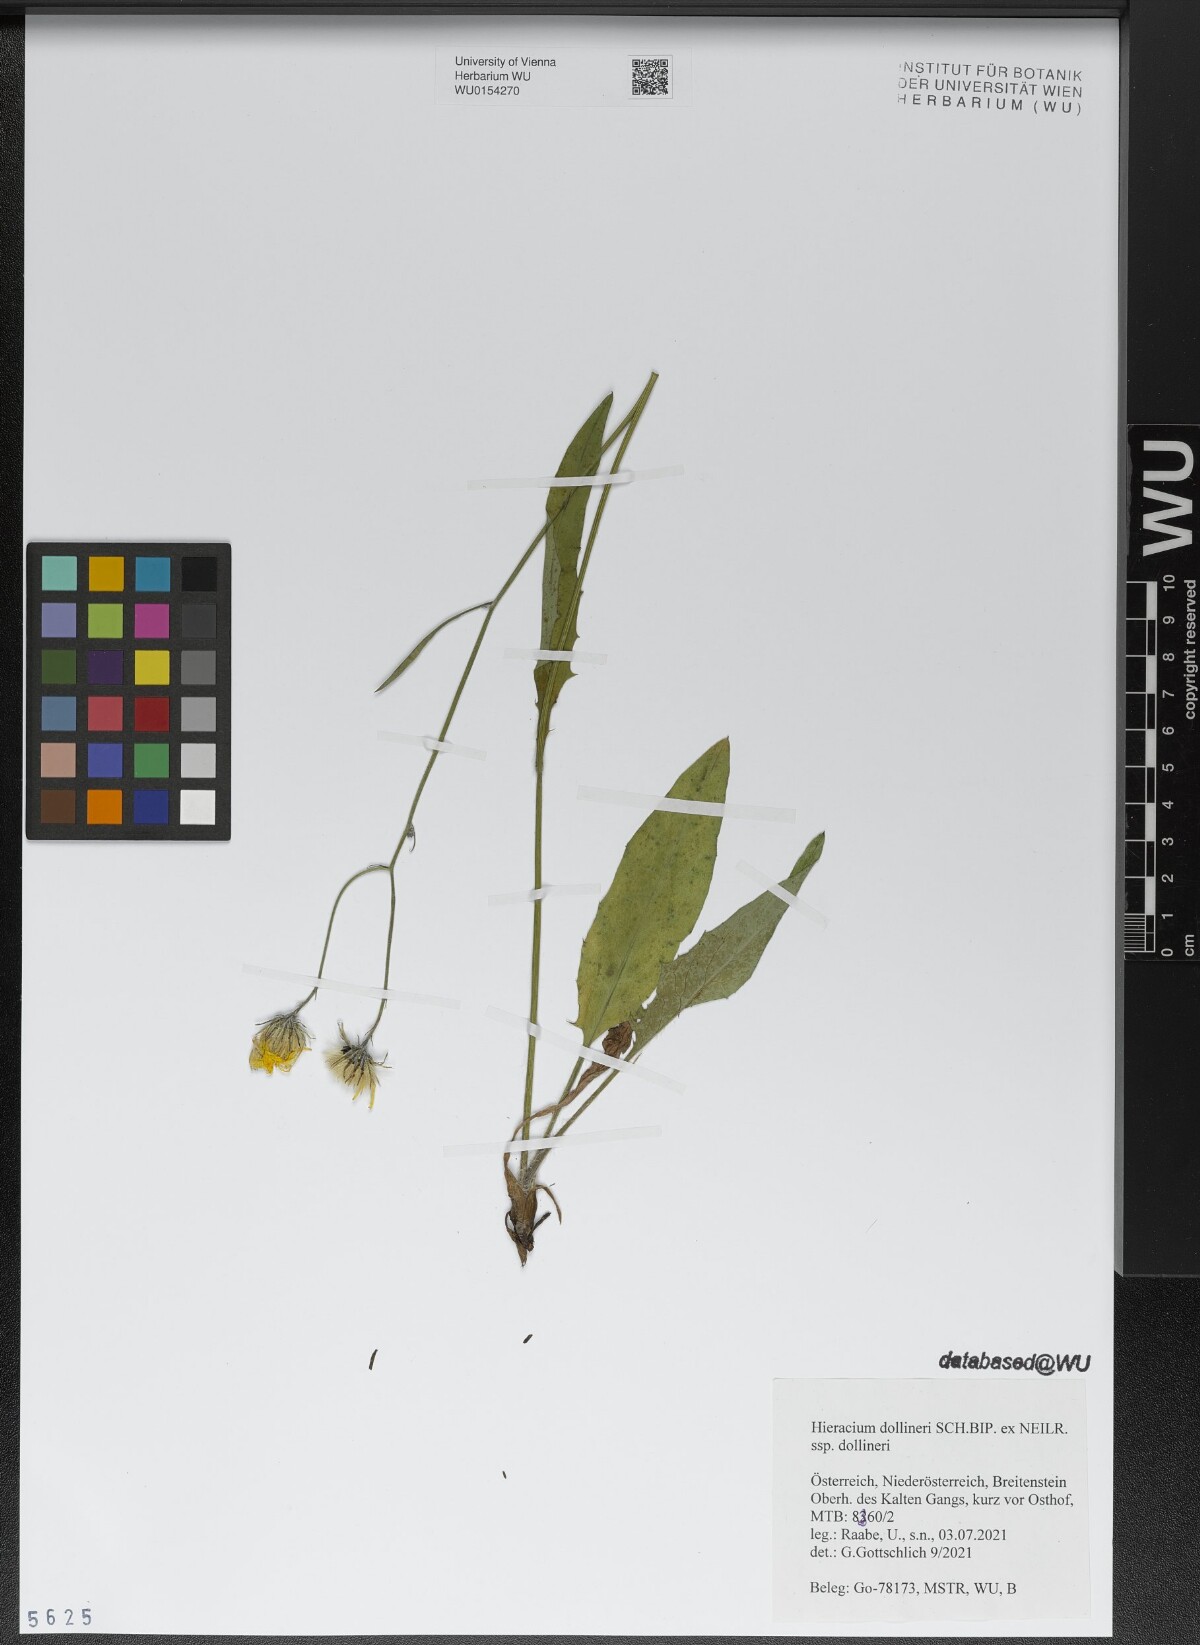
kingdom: Plantae
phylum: Tracheophyta
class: Magnoliopsida
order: Asterales
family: Asteraceae
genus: Hieracium
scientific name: Hieracium dollineri
